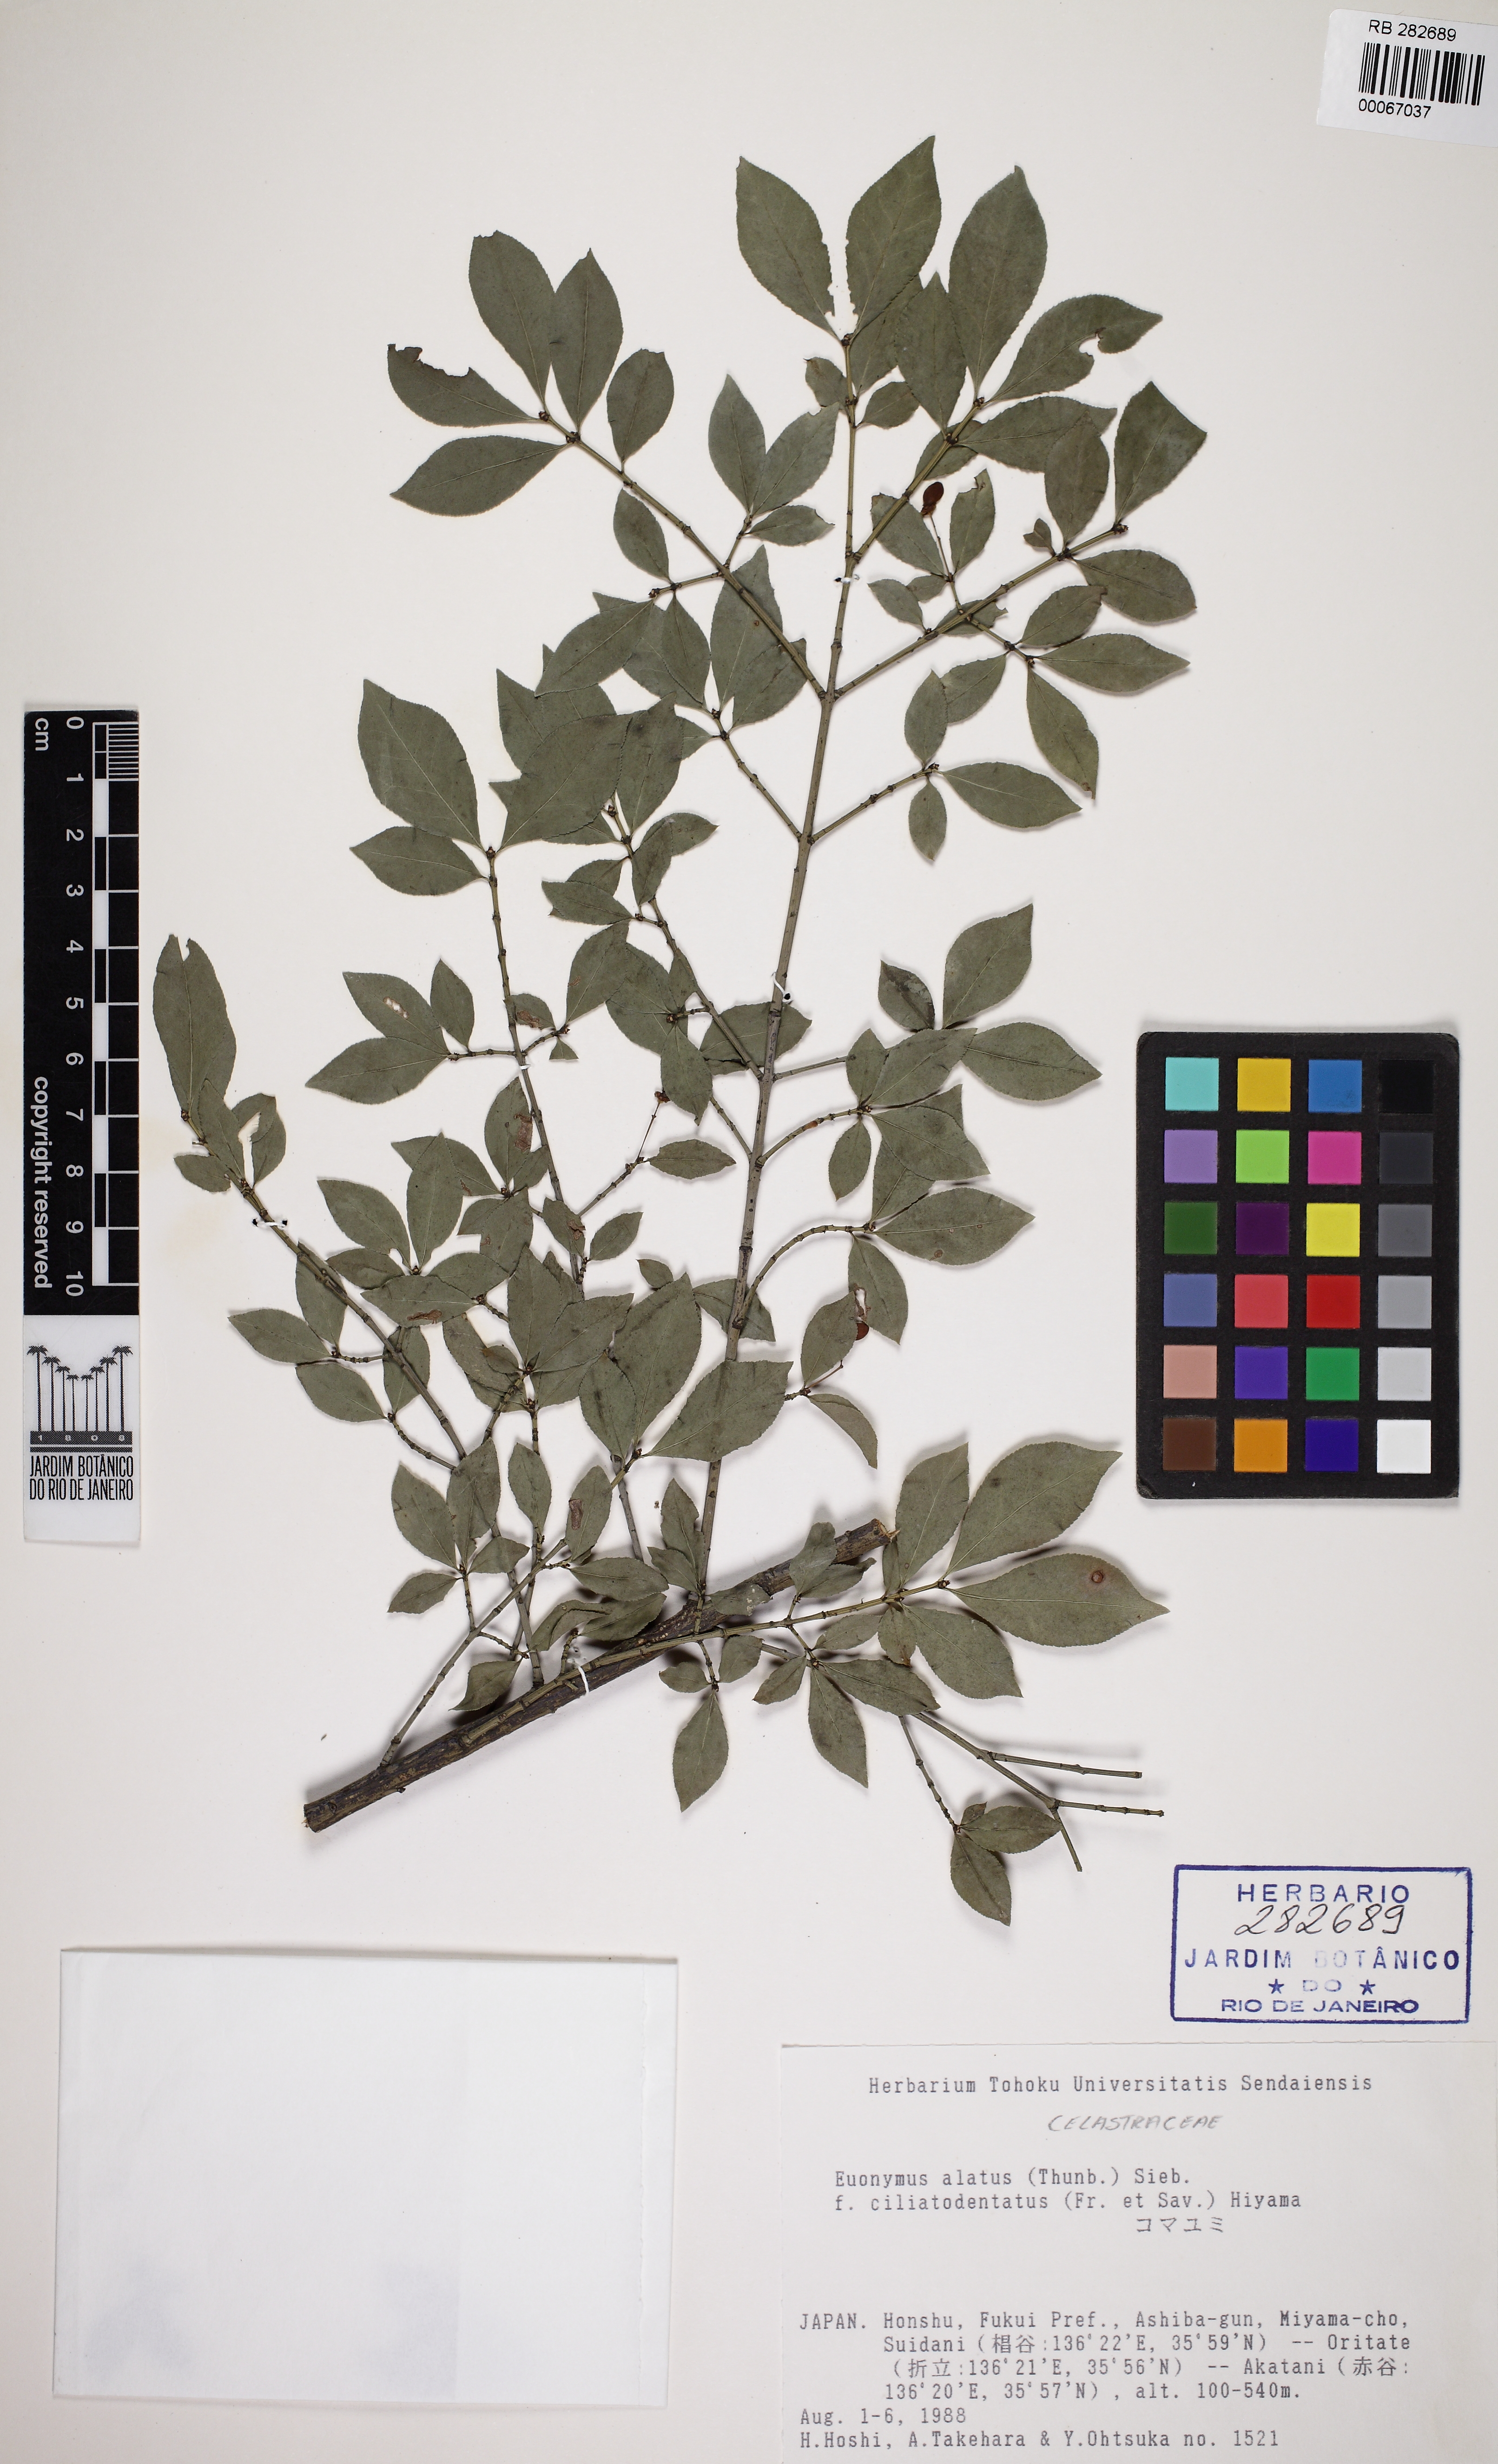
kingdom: Plantae
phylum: Tracheophyta
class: Magnoliopsida
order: Celastrales
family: Celastraceae
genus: Euonymus
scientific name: Euonymus alatus
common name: Winged euonymus
